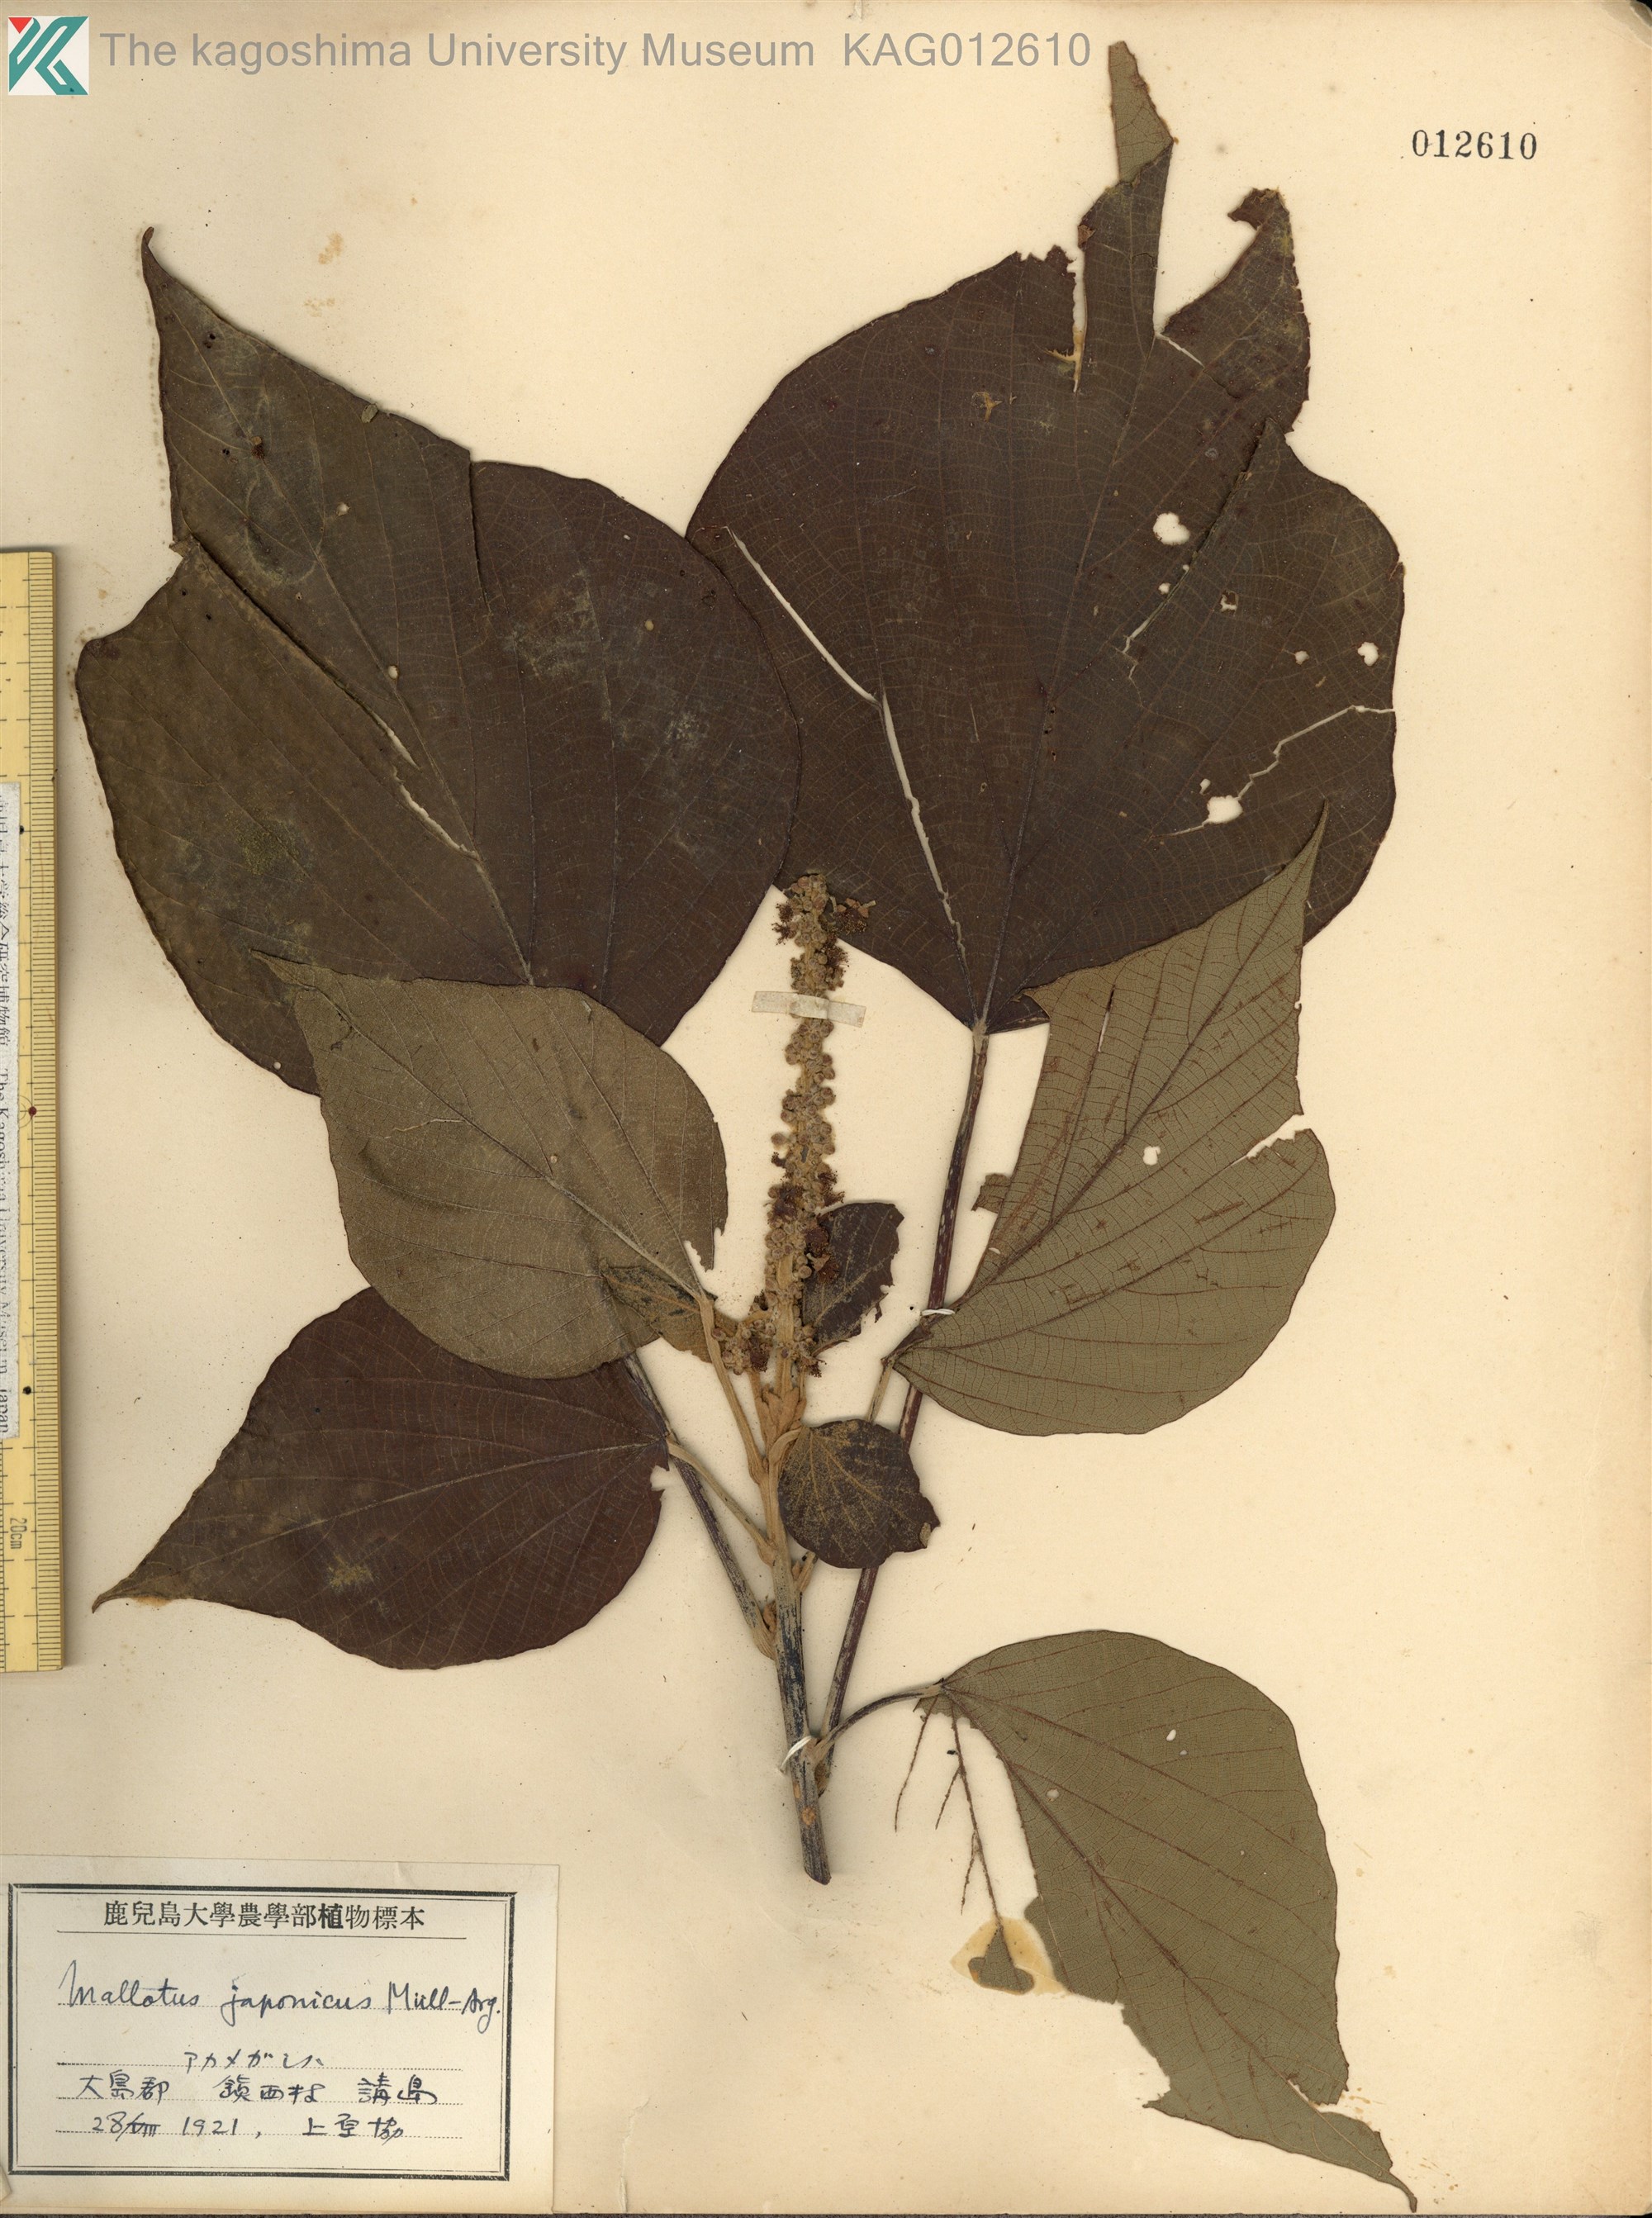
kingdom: Plantae
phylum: Tracheophyta
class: Magnoliopsida
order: Malpighiales
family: Euphorbiaceae
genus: Mallotus
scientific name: Mallotus japonicus
